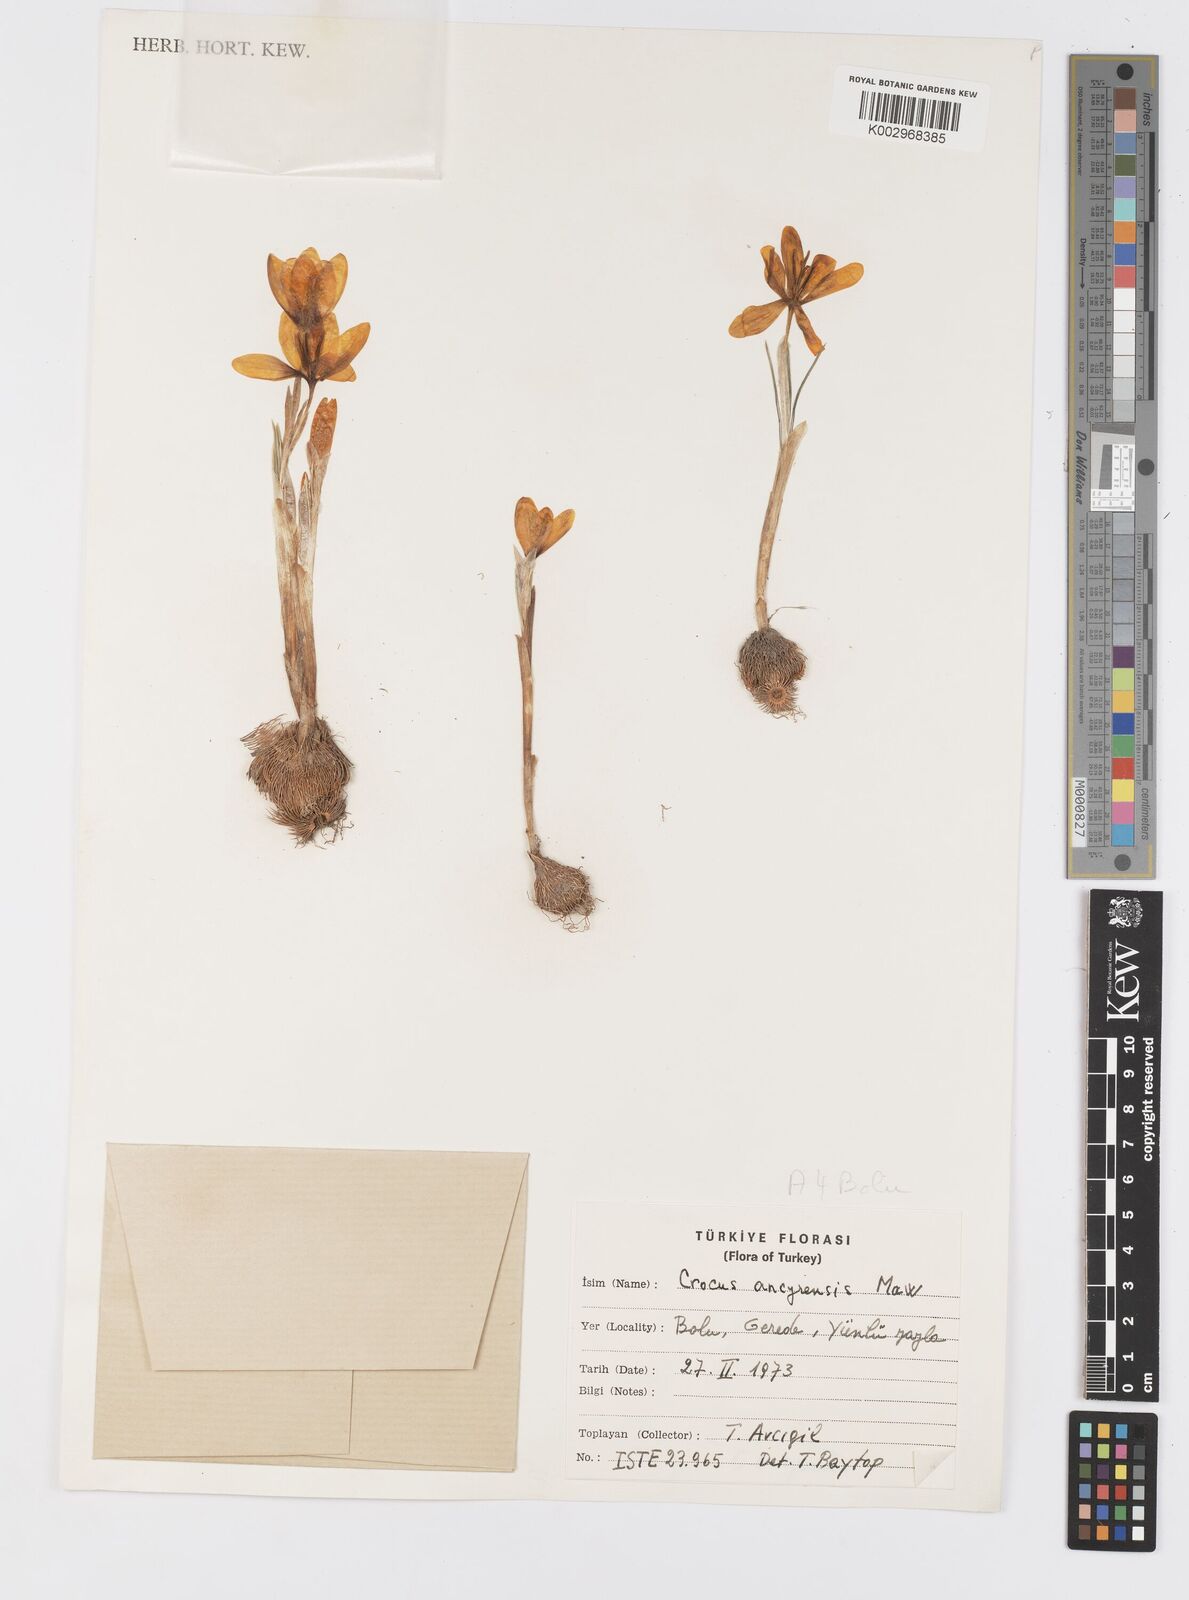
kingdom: Plantae
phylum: Tracheophyta
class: Liliopsida
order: Asparagales
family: Iridaceae
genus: Crocus
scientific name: Crocus ancyrensis
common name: Ankara crocus
